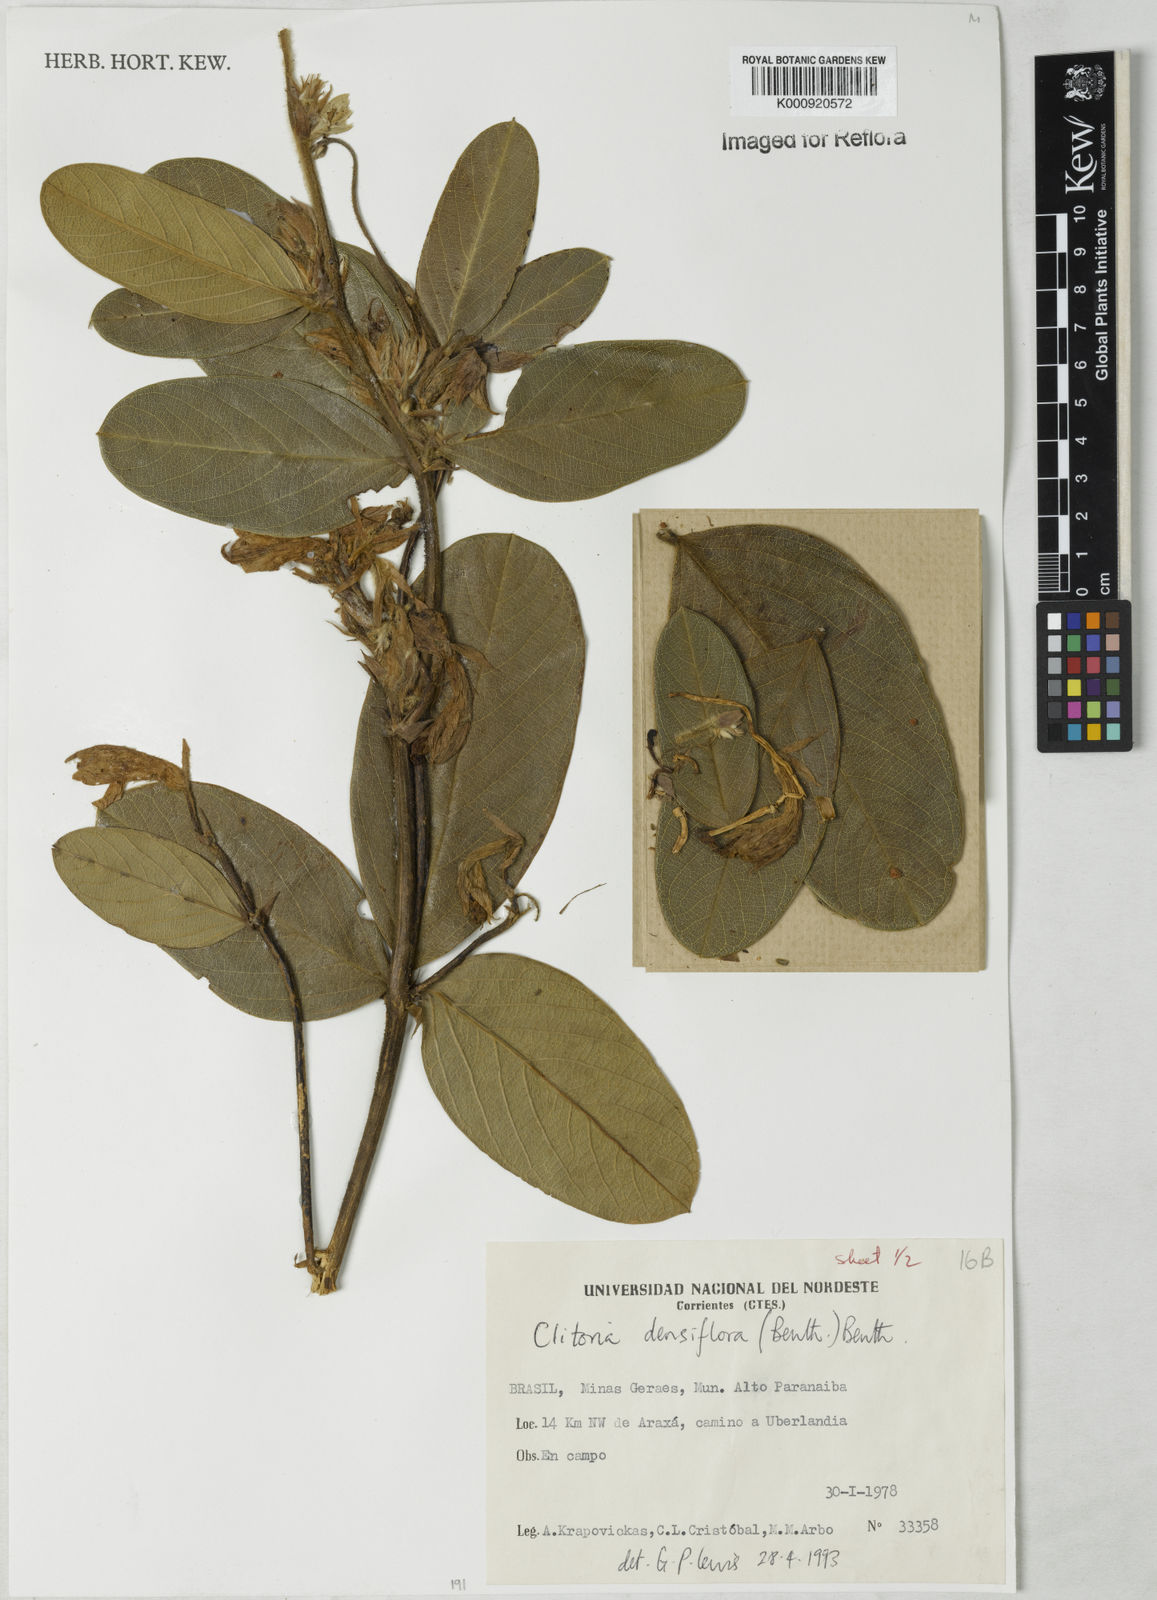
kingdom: Plantae
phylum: Tracheophyta
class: Magnoliopsida
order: Fabales
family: Fabaceae
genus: Clitoria
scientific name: Clitoria
